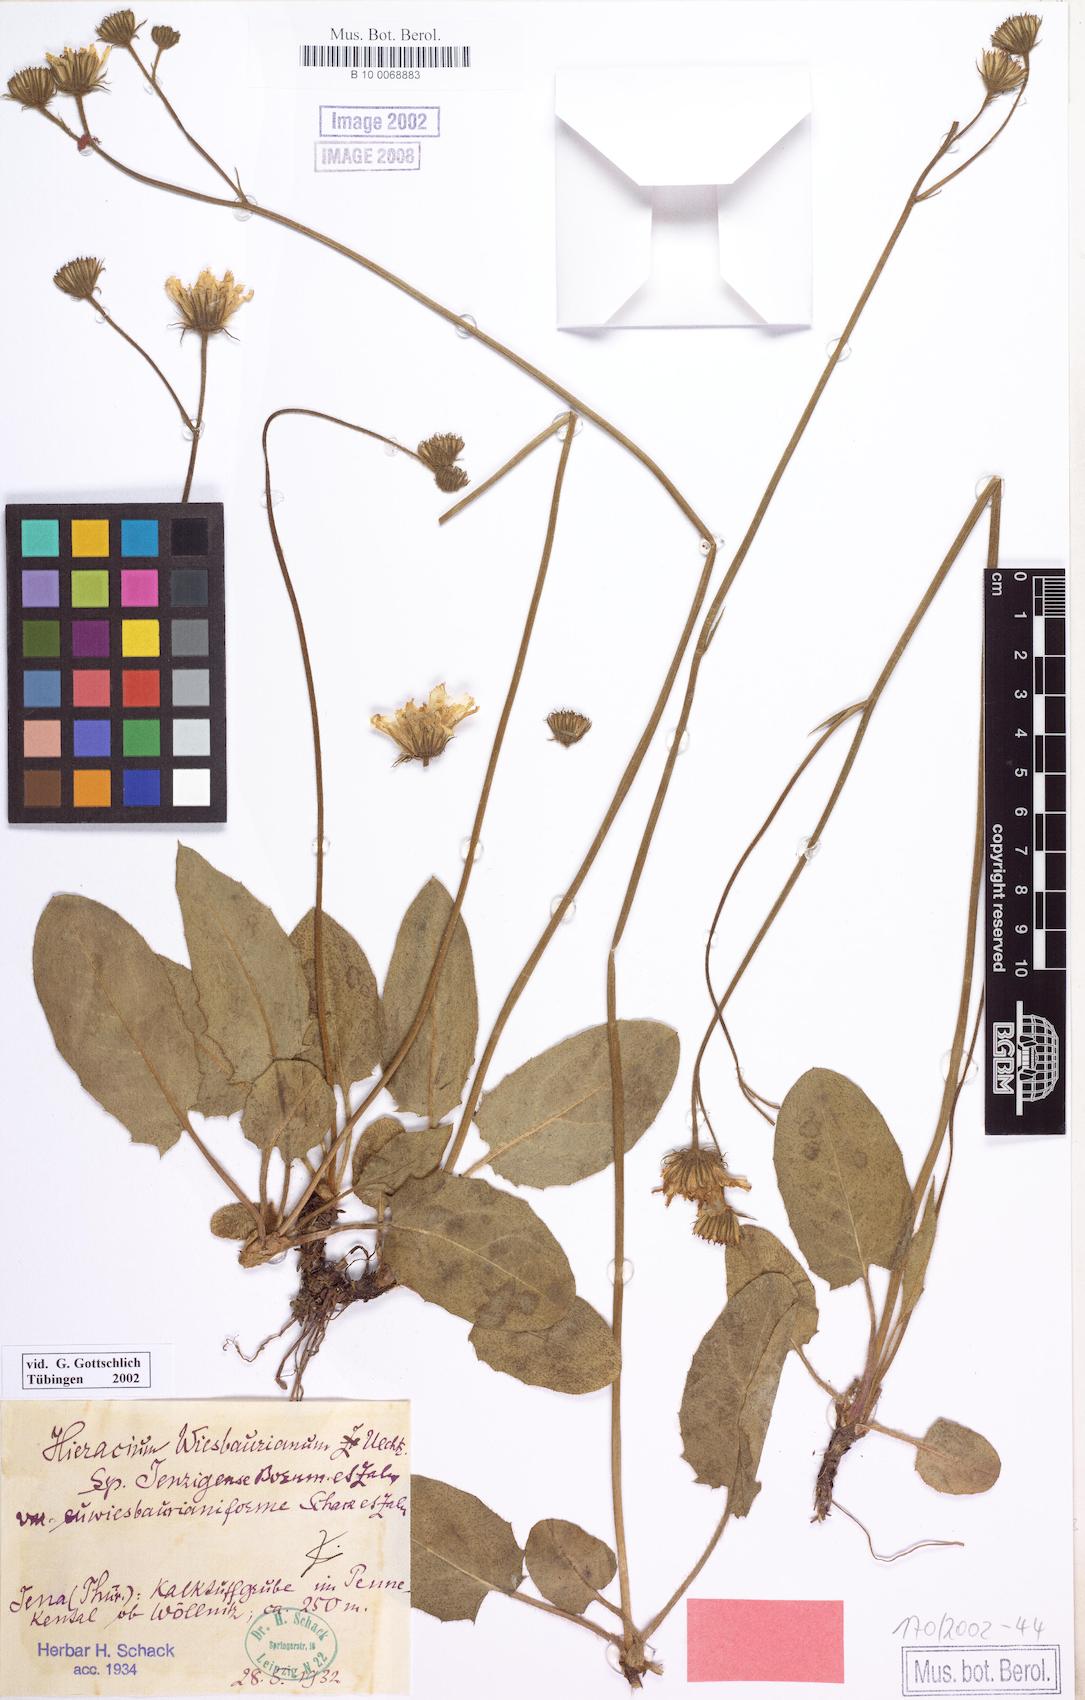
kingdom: Plantae
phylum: Tracheophyta
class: Magnoliopsida
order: Asterales
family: Asteraceae
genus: Hieracium
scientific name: Hieracium hypochoeroides
